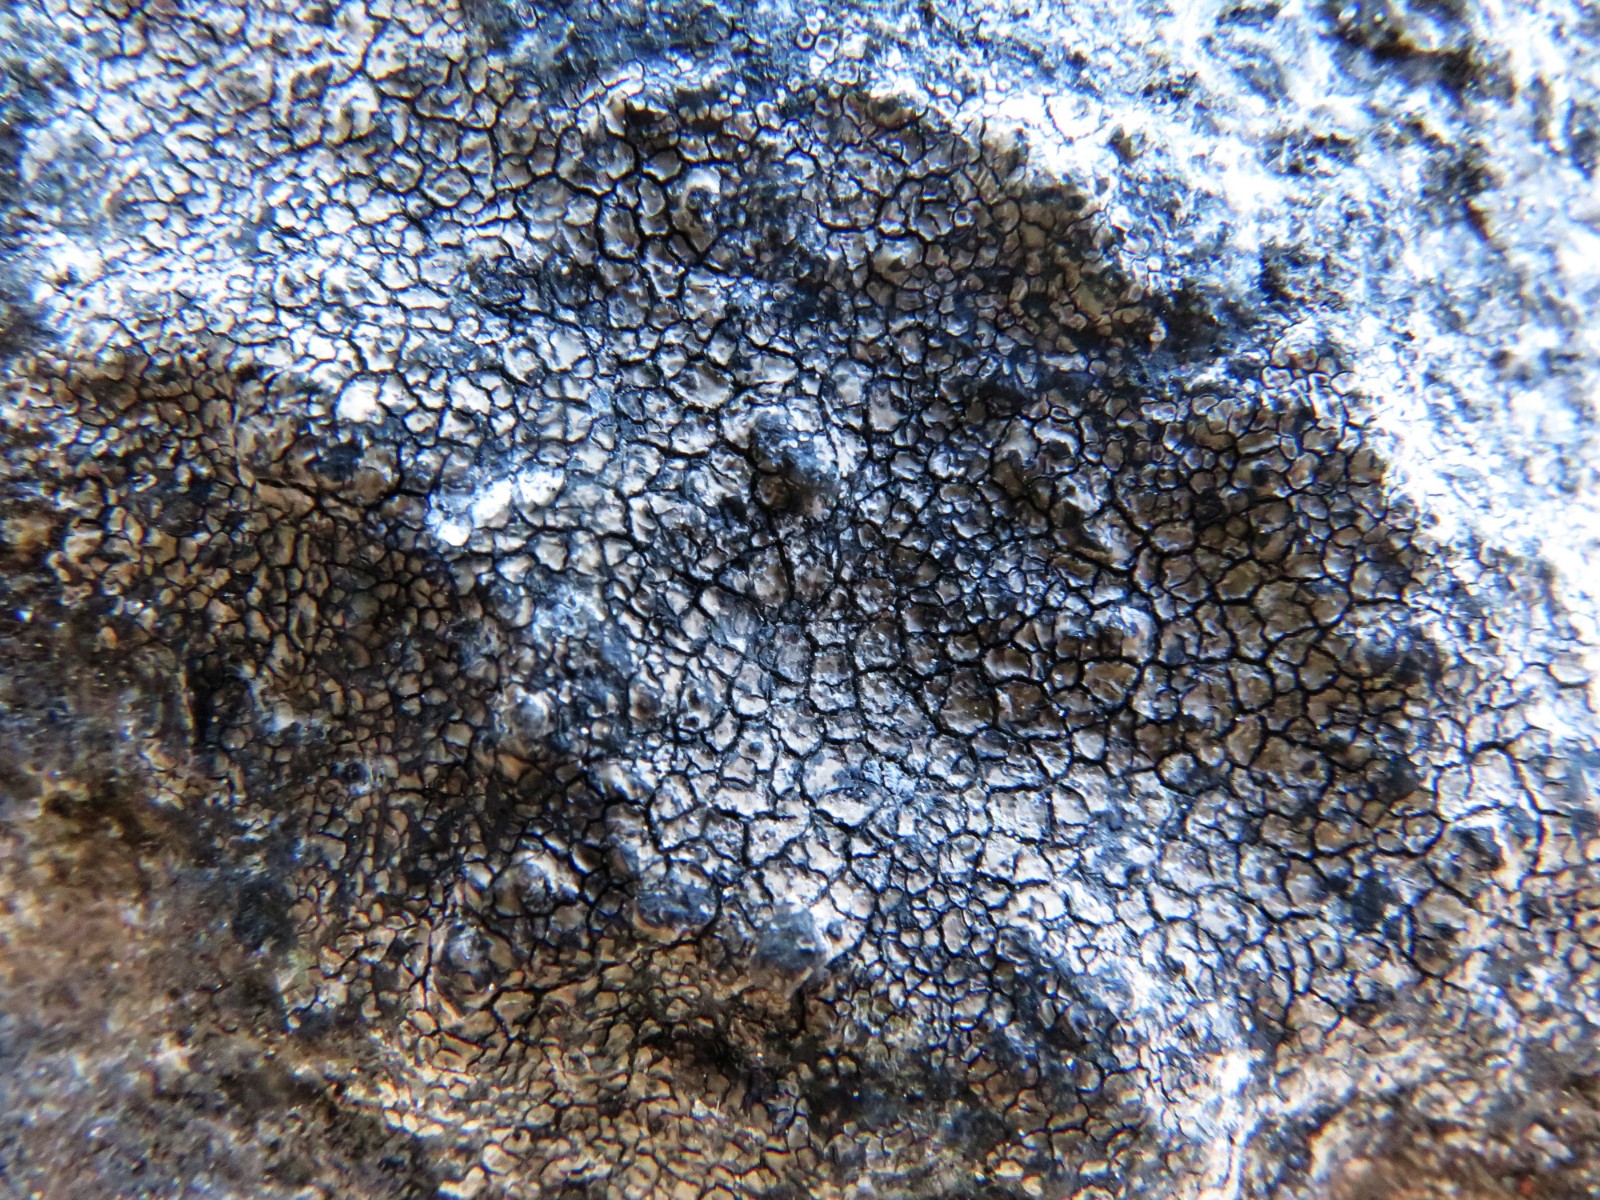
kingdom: Fungi
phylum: Ascomycota
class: Lecanoromycetes
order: Lecideales
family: Lecideaceae
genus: Lecidea
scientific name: Lecidea fuscoatra
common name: rudret skivelav
